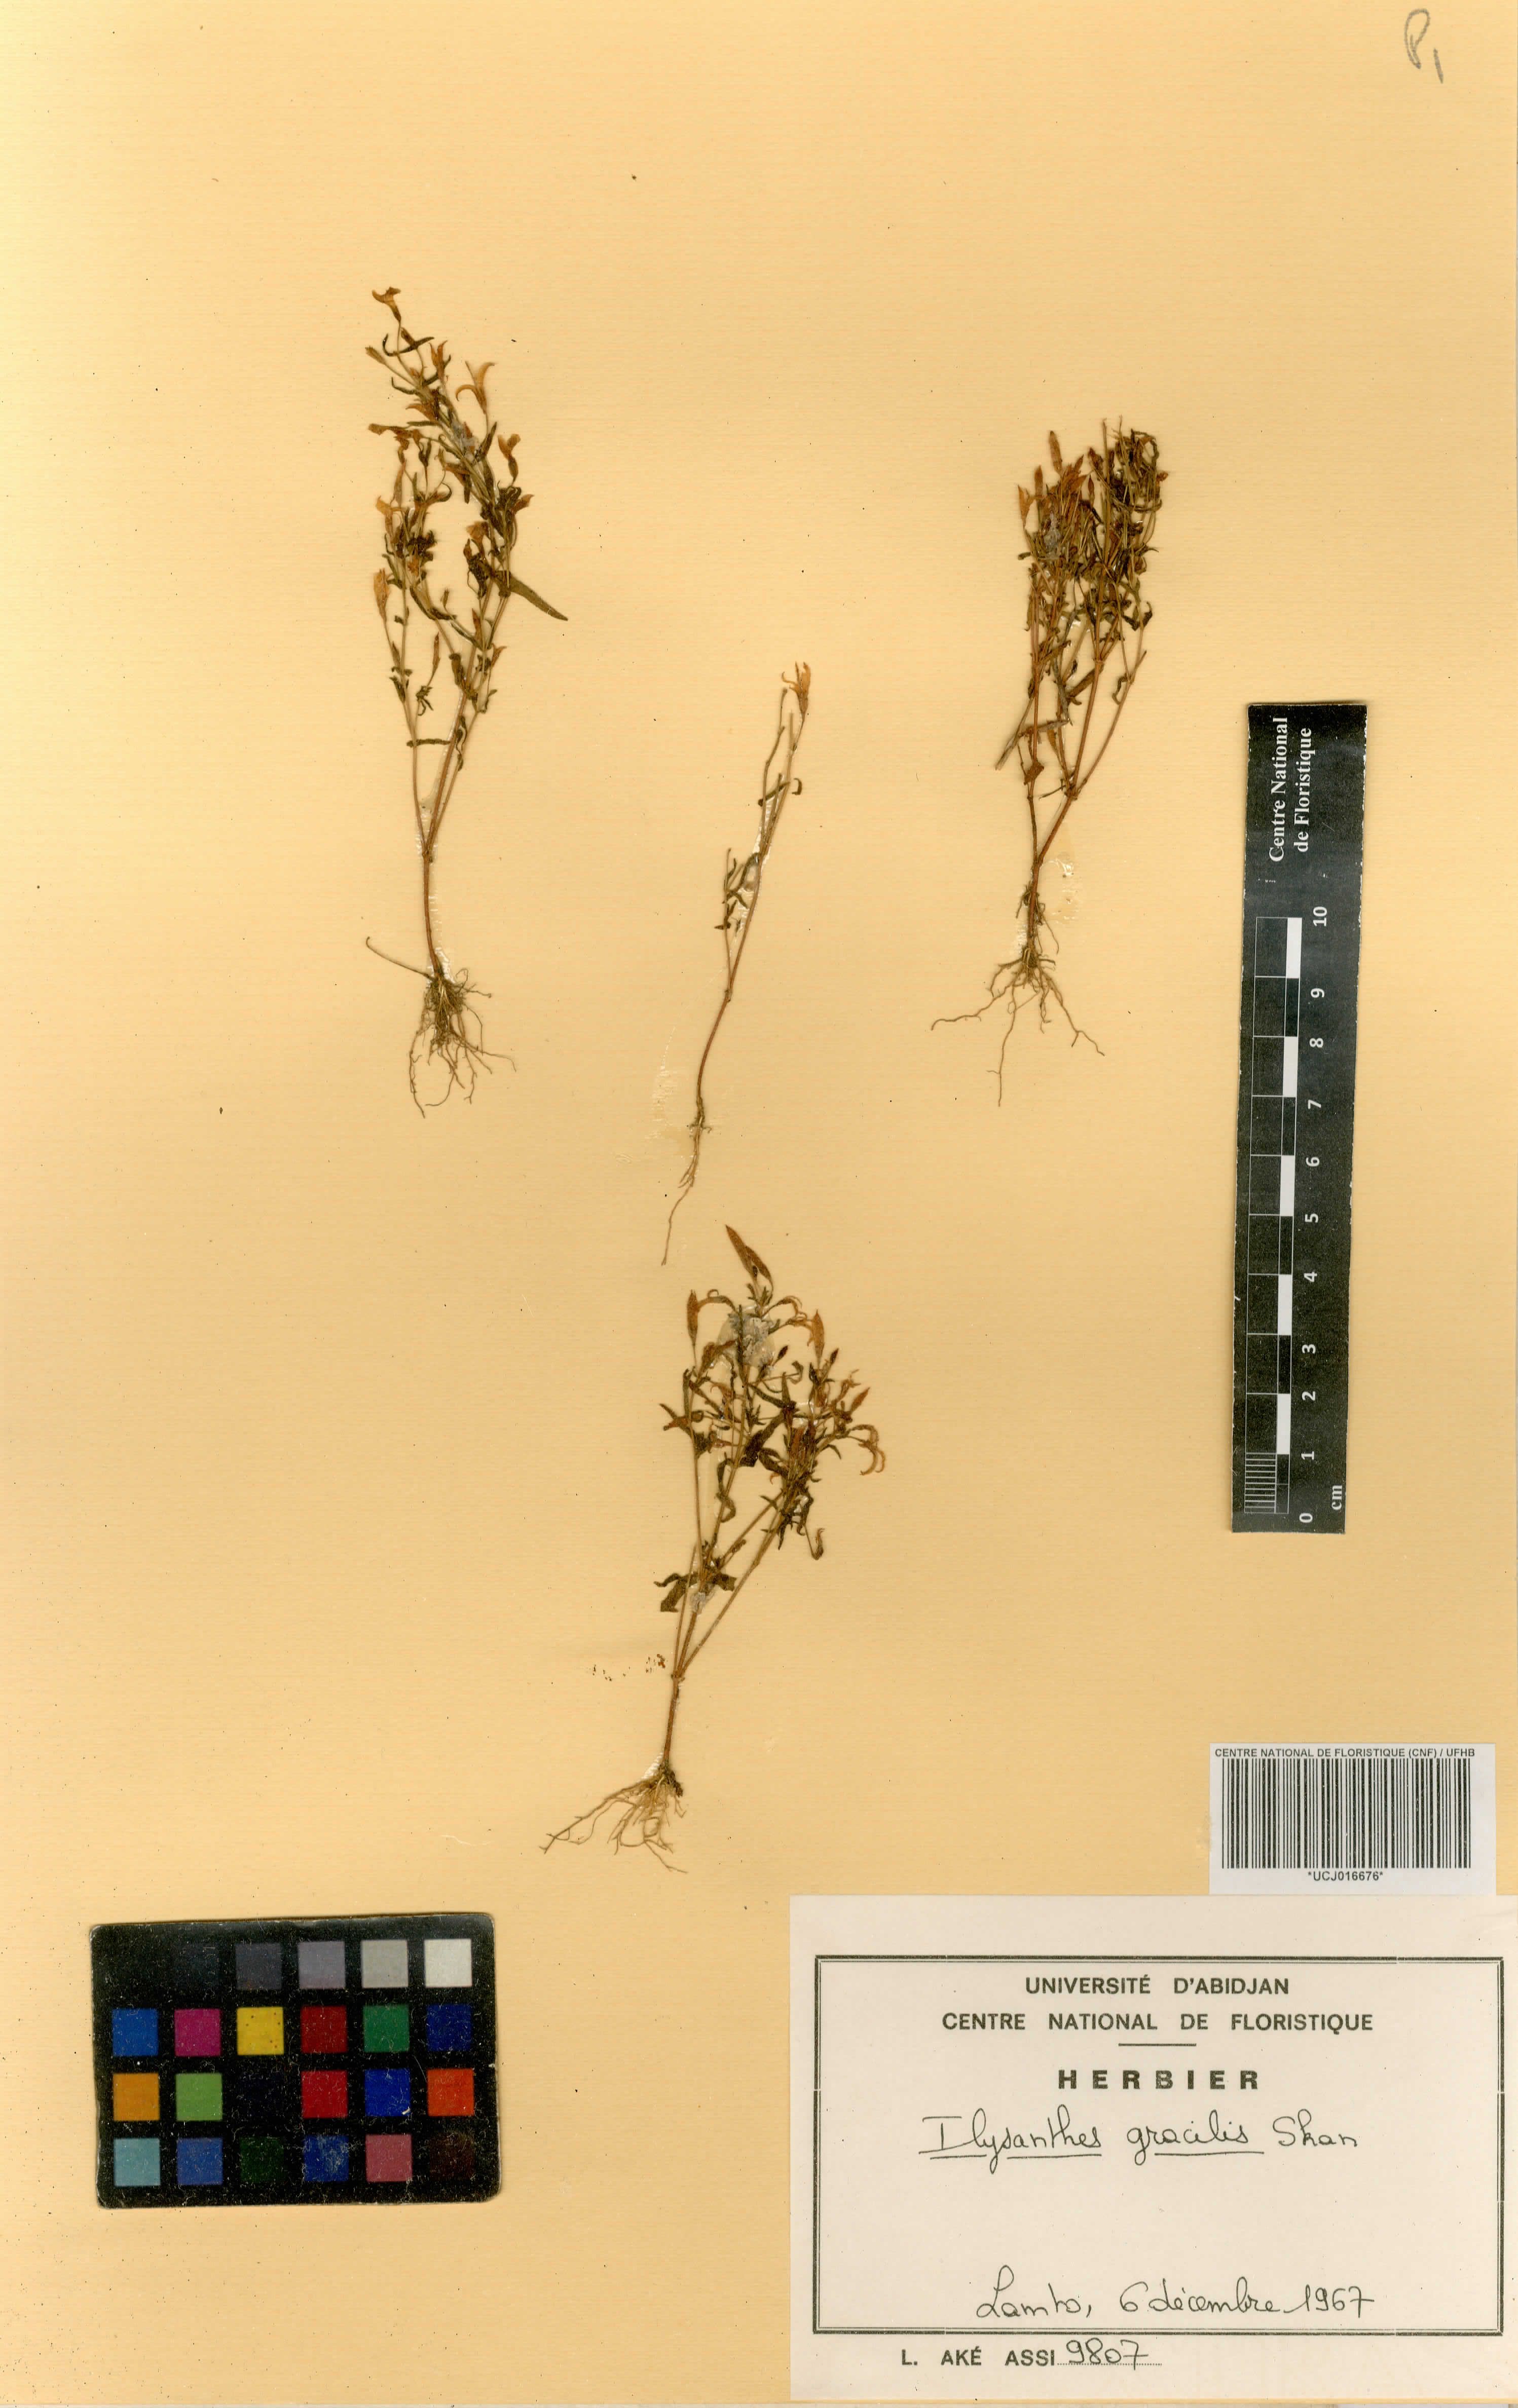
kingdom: Plantae
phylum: Tracheophyta
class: Magnoliopsida
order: Lamiales
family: Linderniaceae
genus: Linderniella
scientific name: Linderniella gracilis
